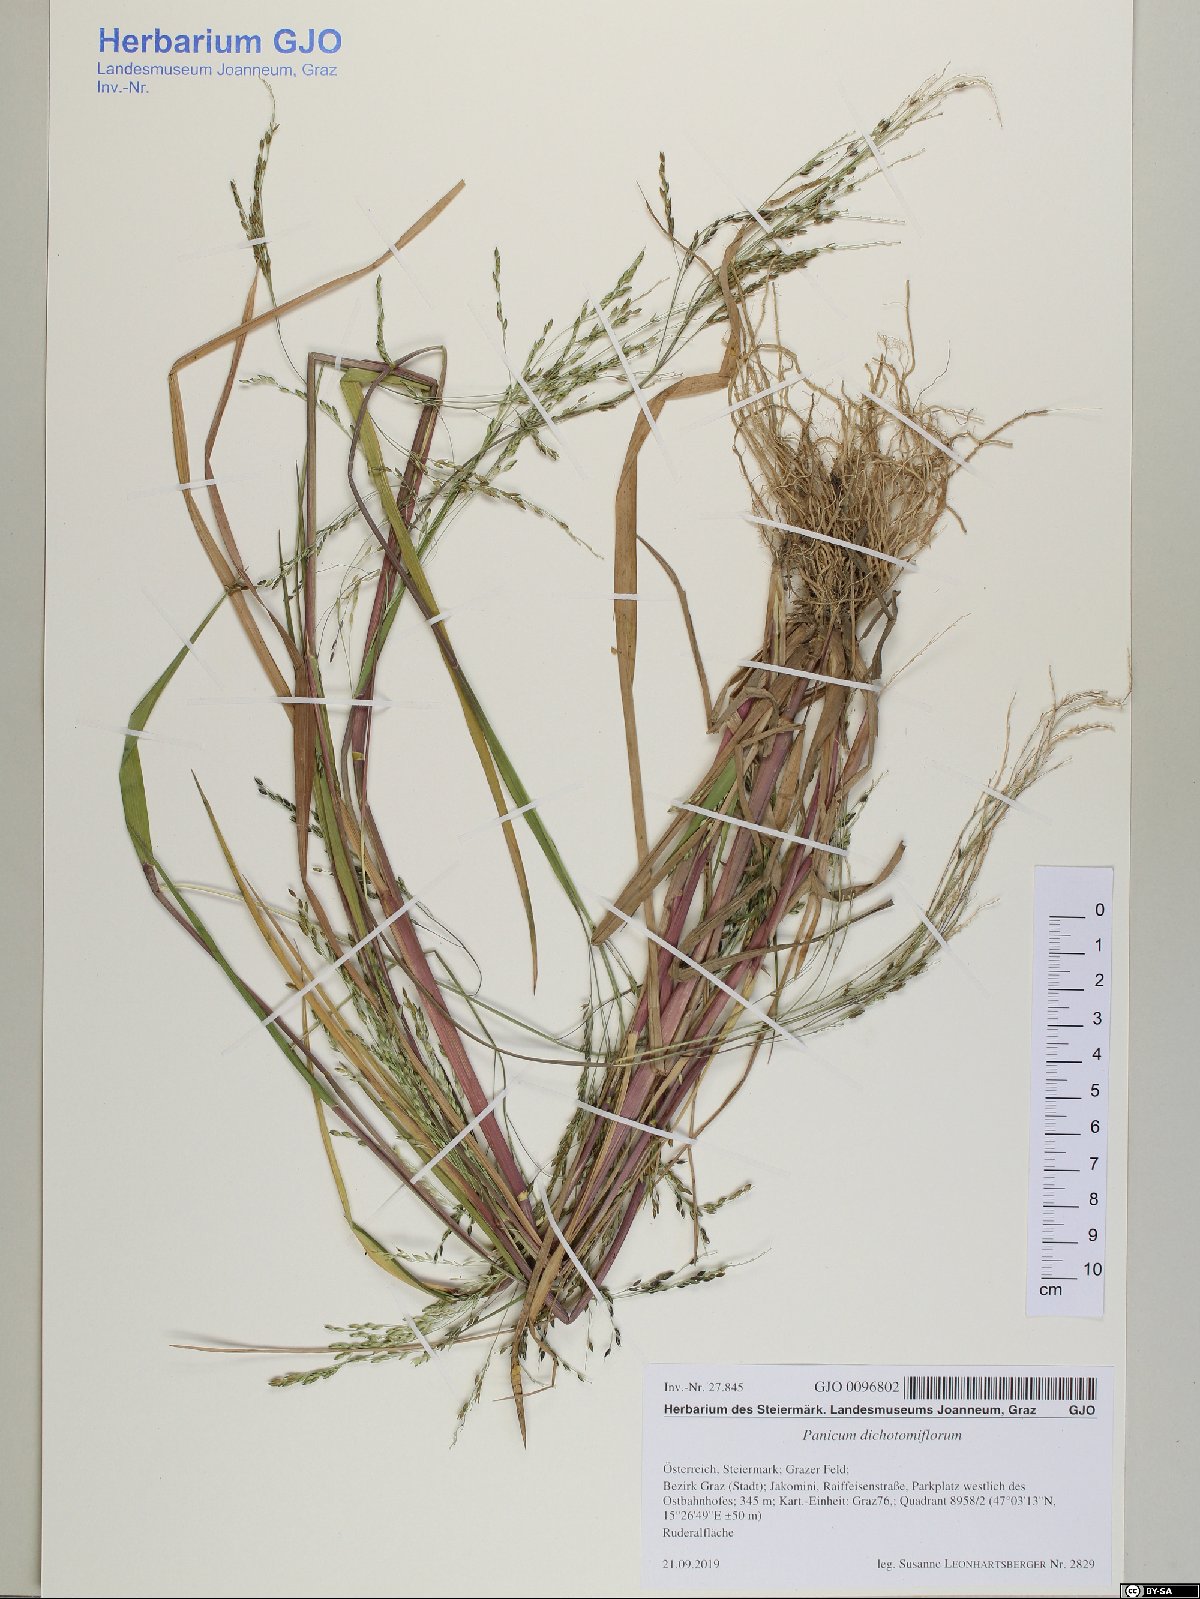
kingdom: Plantae
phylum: Tracheophyta
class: Liliopsida
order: Poales
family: Poaceae
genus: Panicum
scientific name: Panicum dichotomiflorum
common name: Autumn millet
